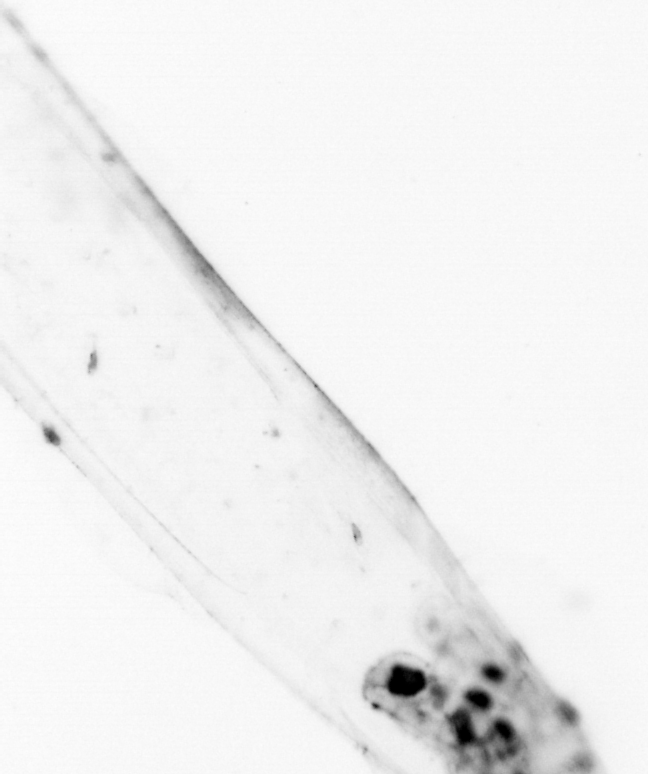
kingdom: Animalia
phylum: Chaetognatha
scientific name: Chaetognatha
